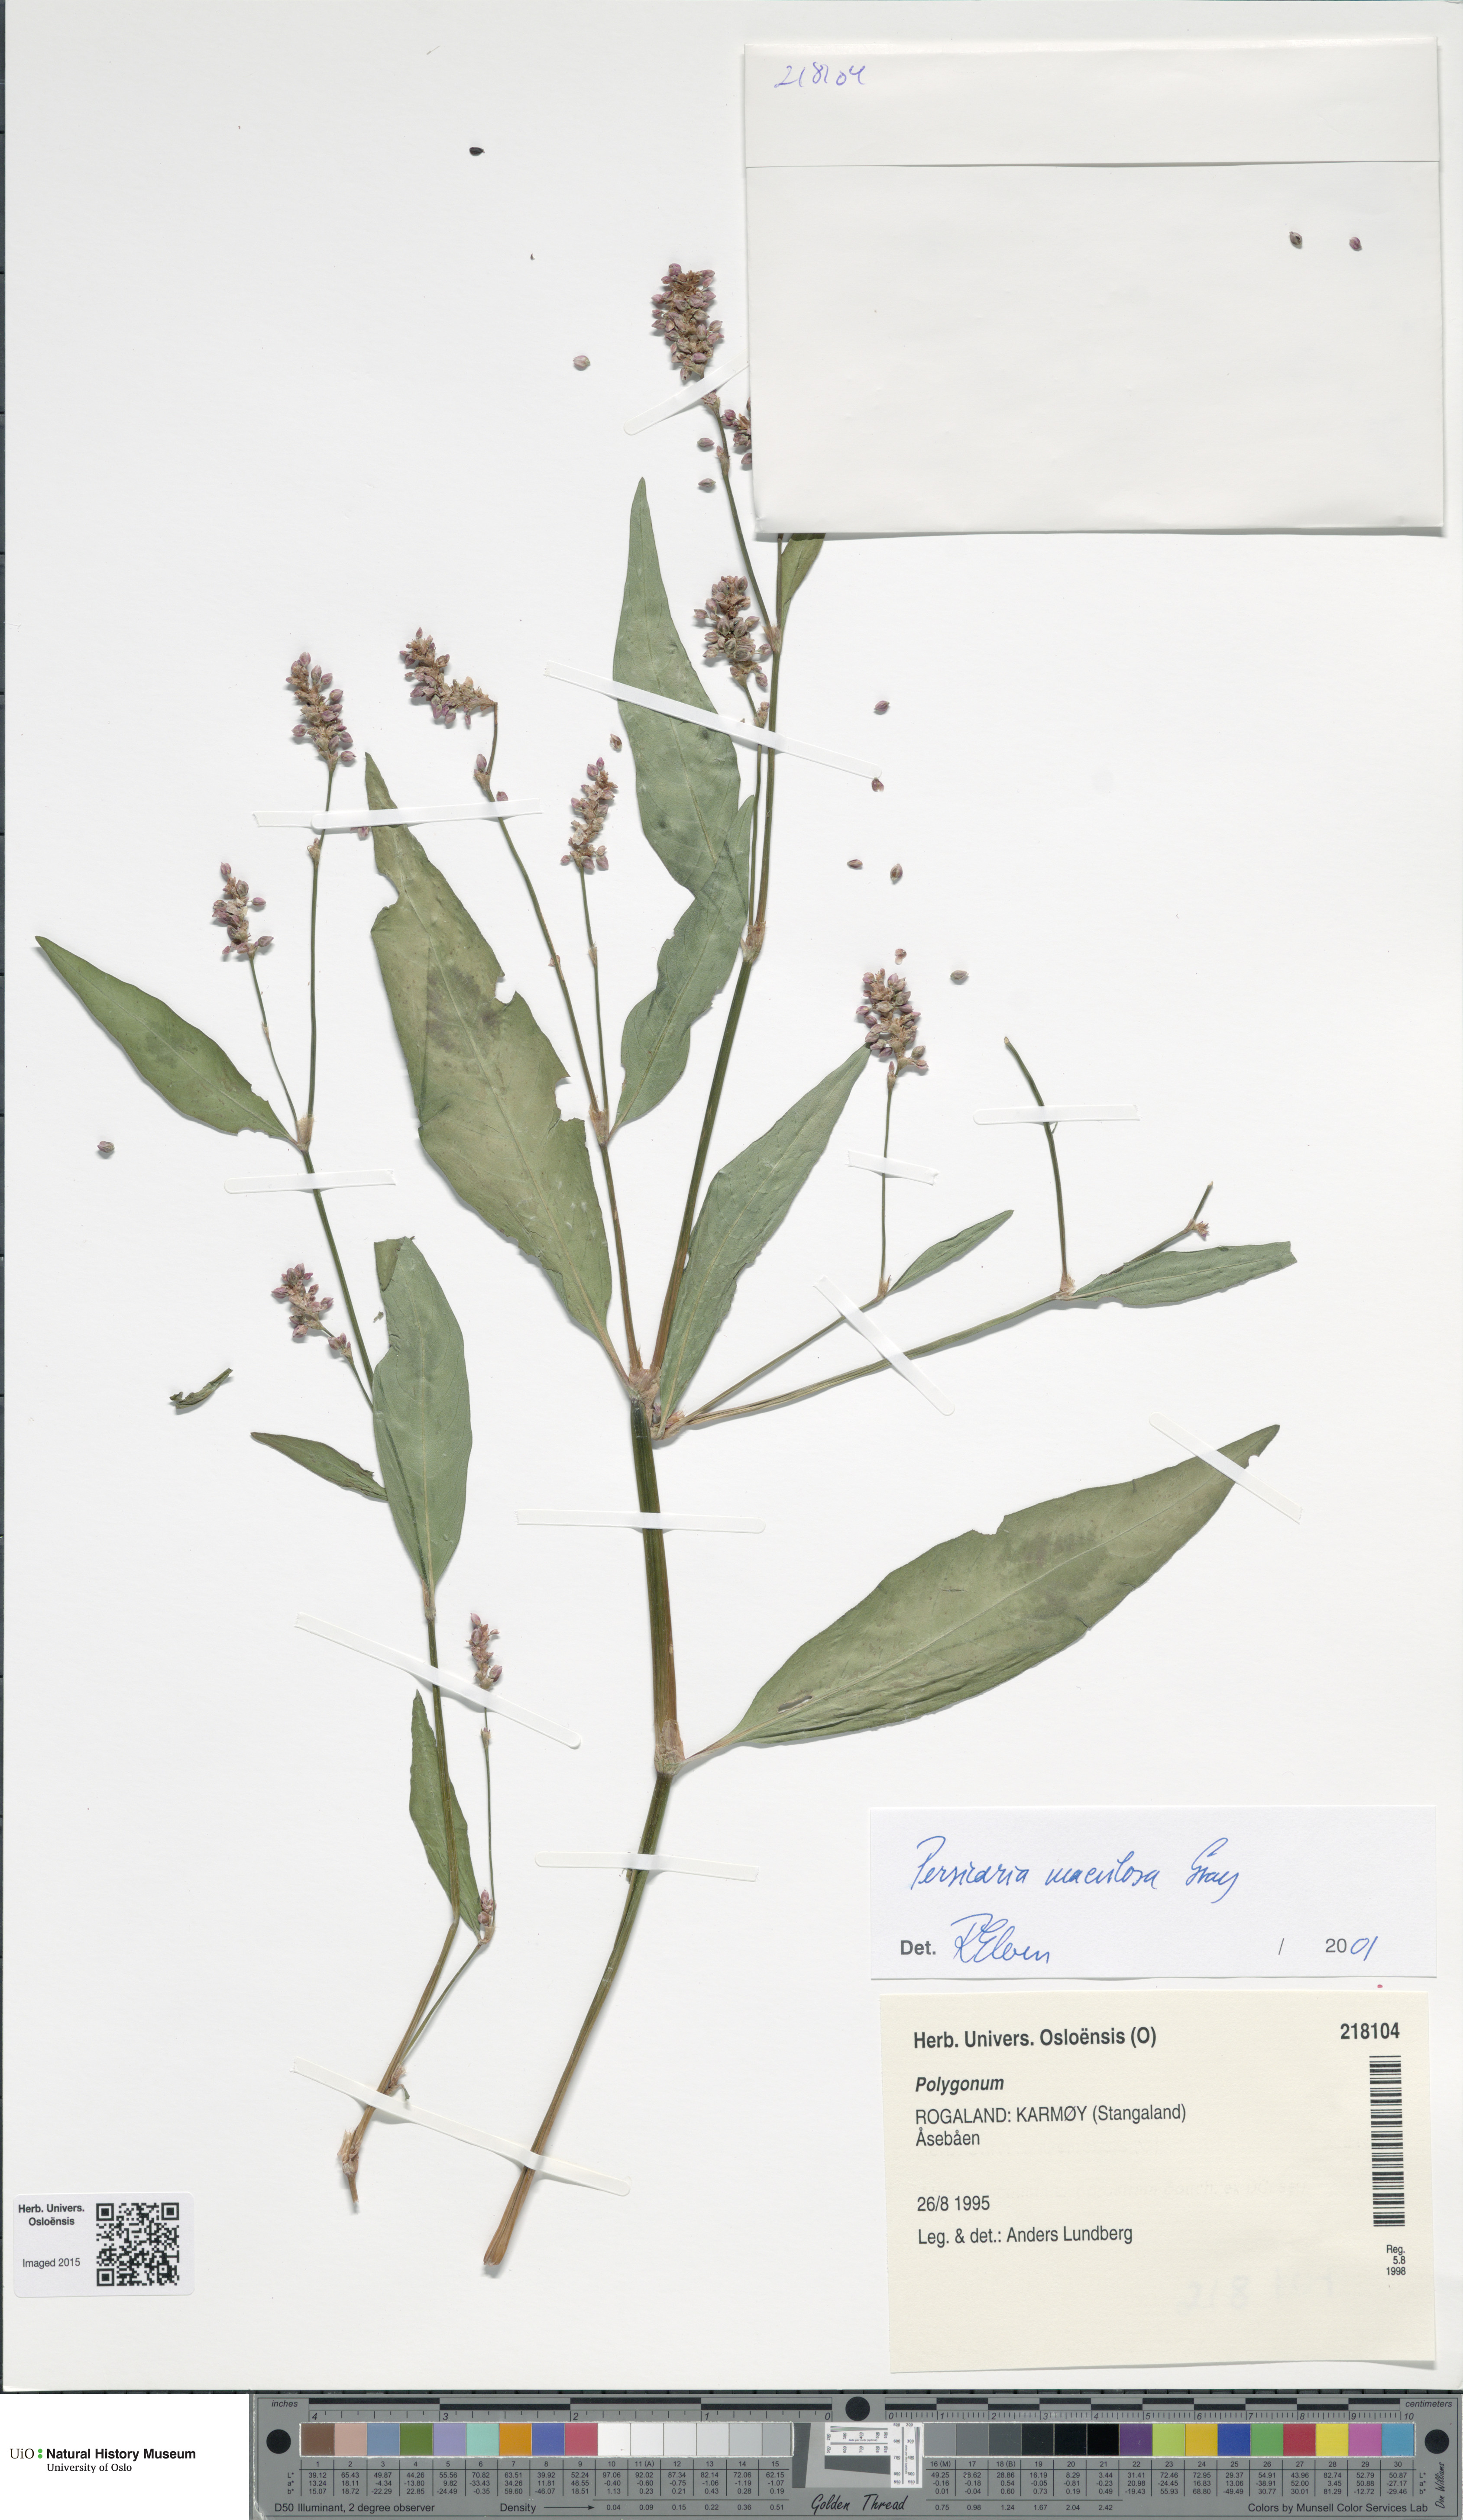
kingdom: Plantae
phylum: Tracheophyta
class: Magnoliopsida
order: Caryophyllales
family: Polygonaceae
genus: Persicaria
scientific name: Persicaria maculosa
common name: Redshank
